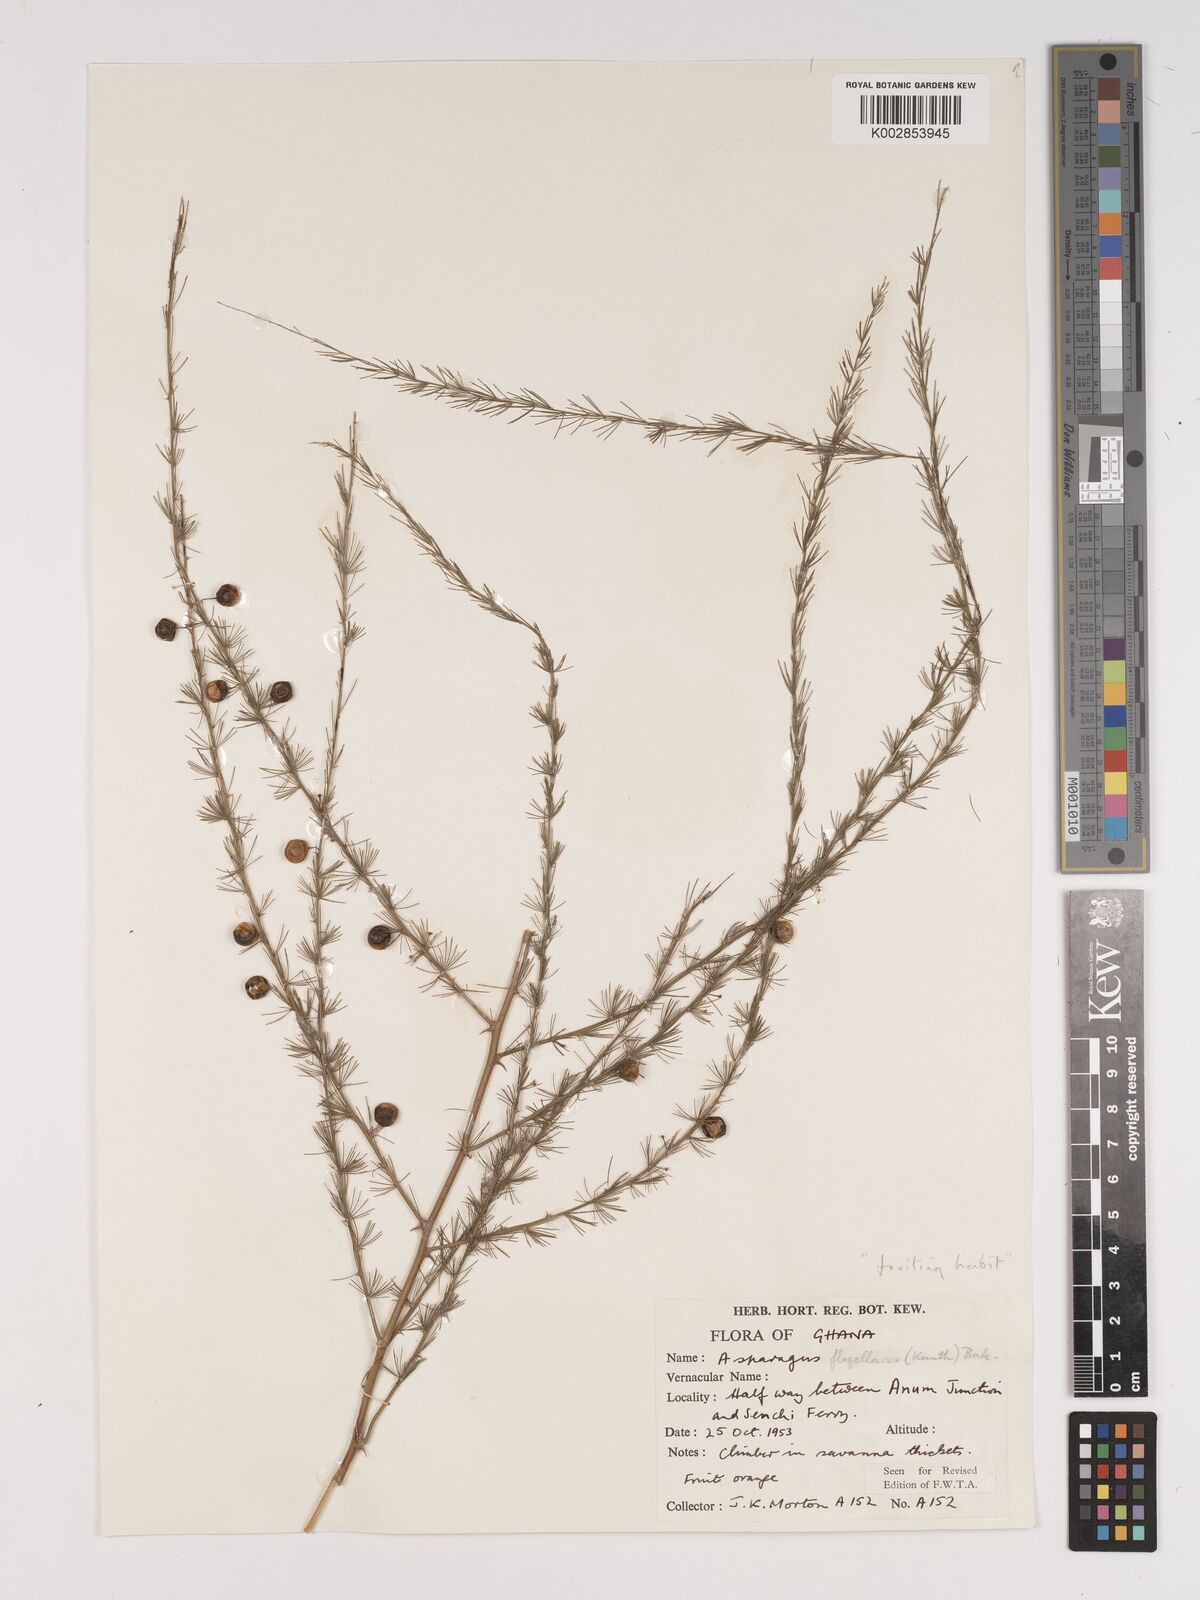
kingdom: Plantae
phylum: Tracheophyta
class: Liliopsida
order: Asparagales
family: Asparagaceae
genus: Asparagus
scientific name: Asparagus flagellaris
